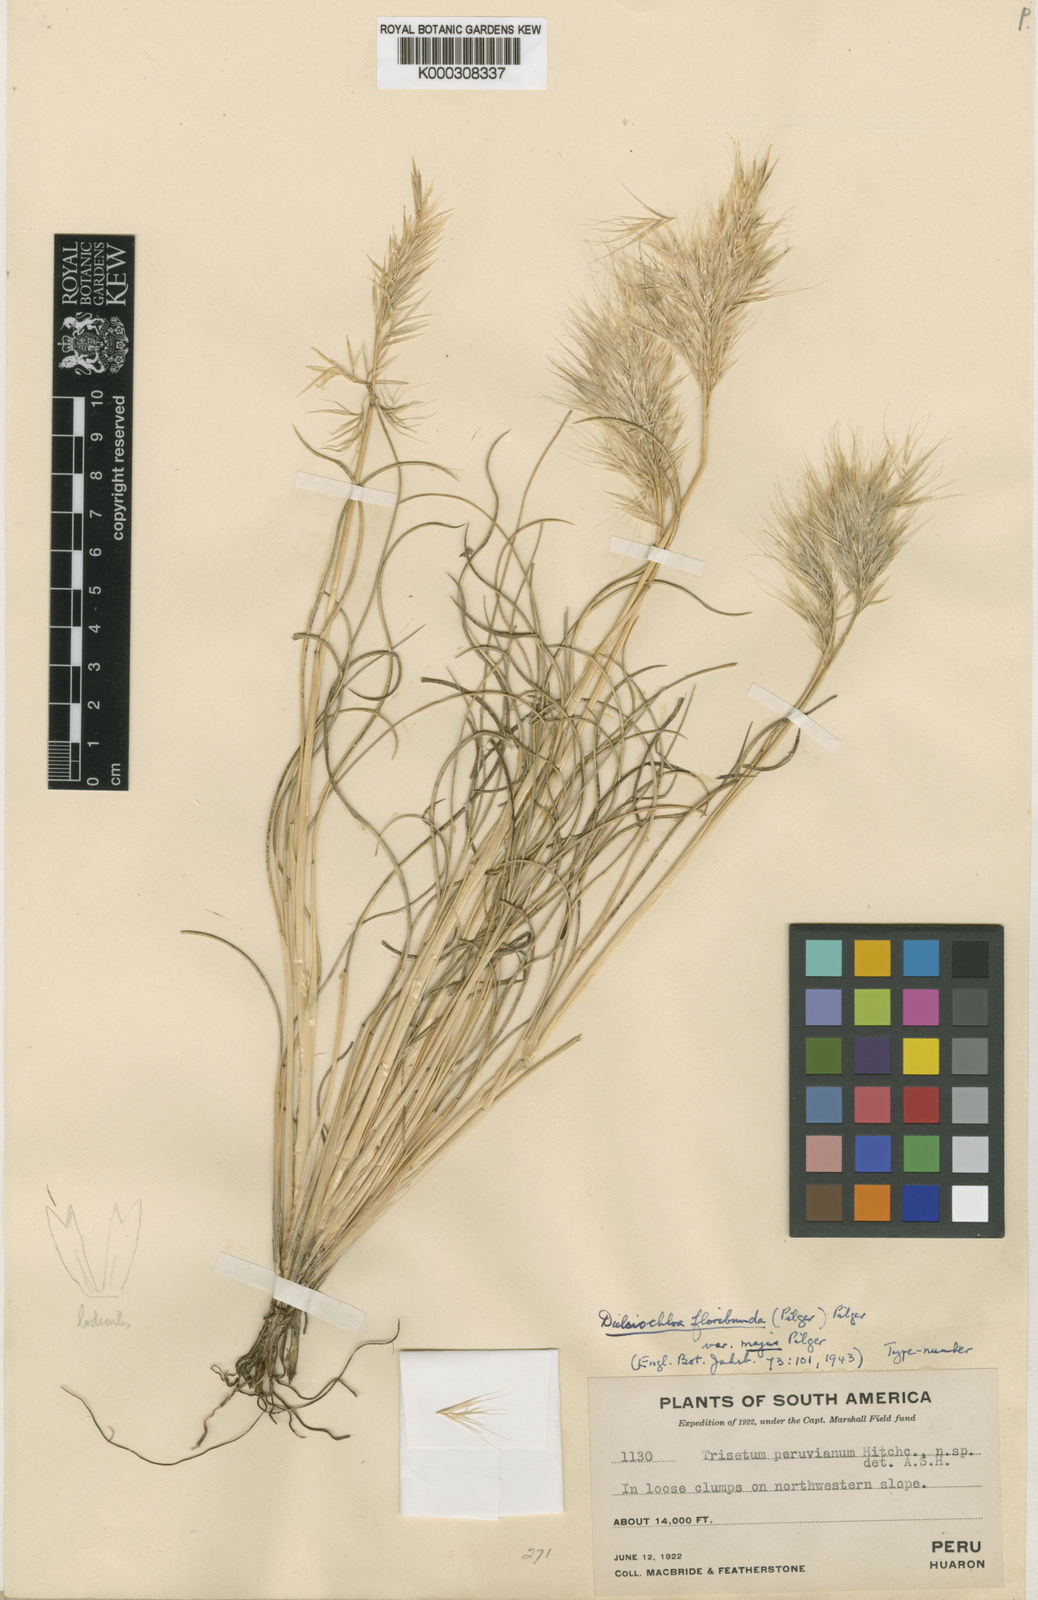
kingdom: Plantae
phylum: Tracheophyta
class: Liliopsida
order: Poales
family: Poaceae
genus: Festuca
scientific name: Festuca floribunda
